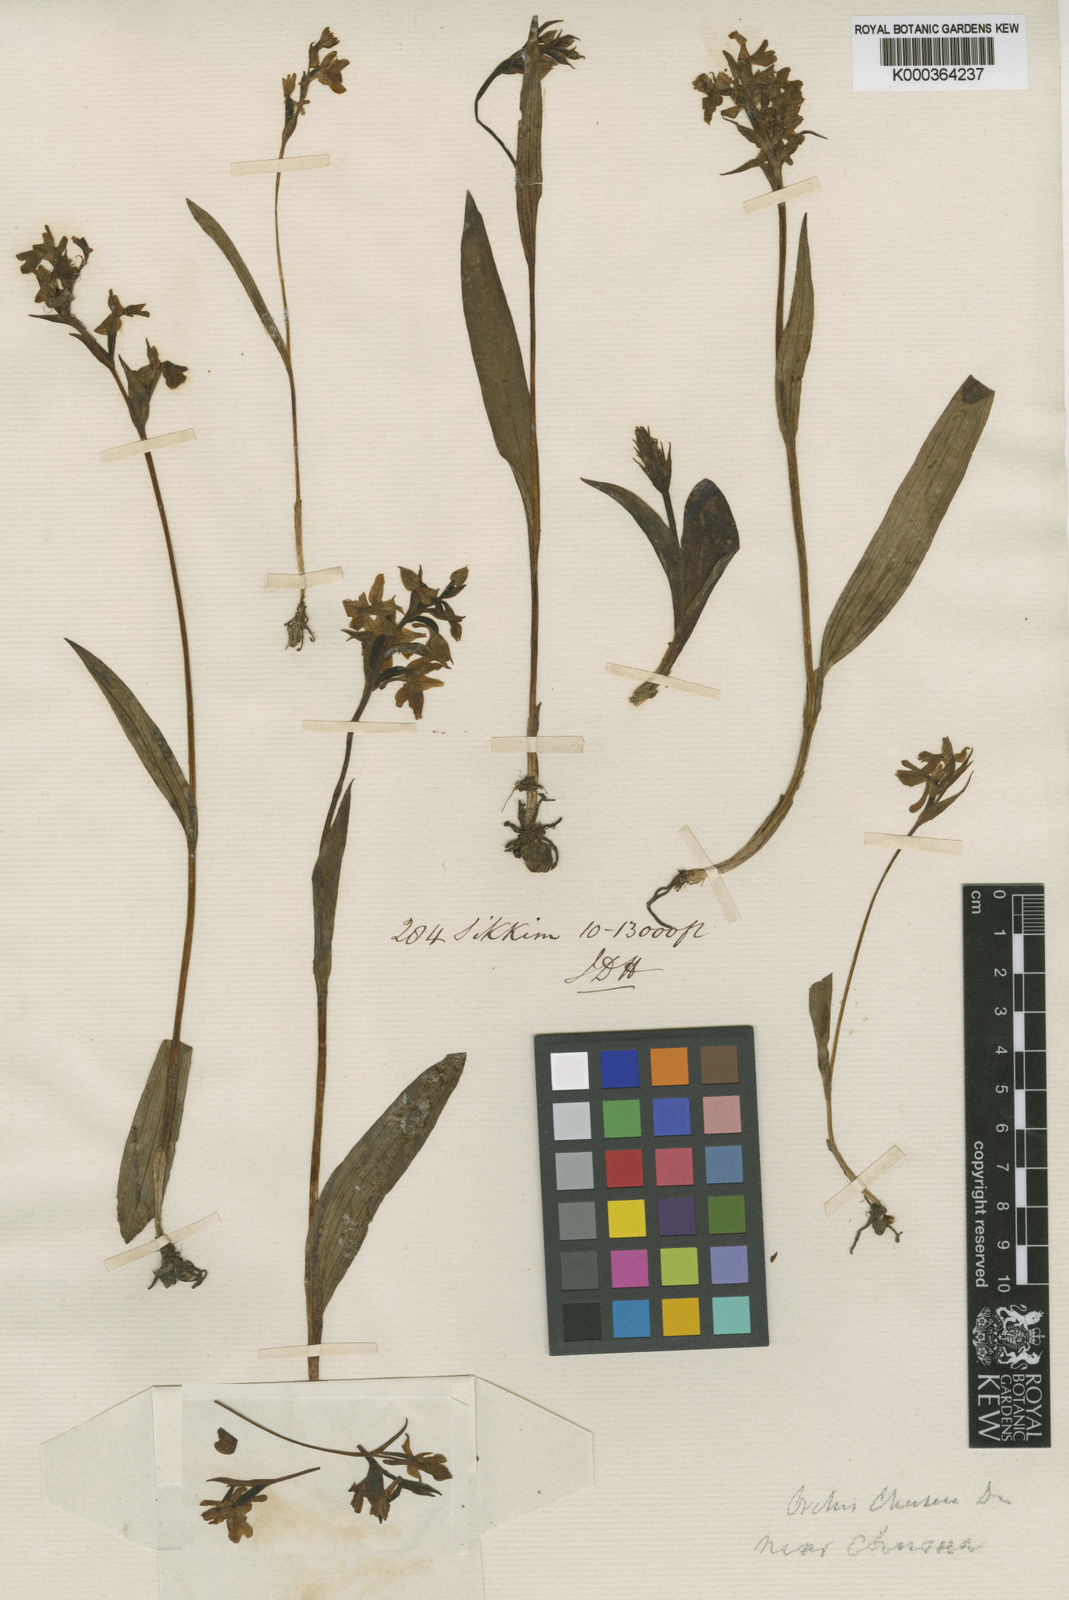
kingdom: Plantae
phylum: Tracheophyta
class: Liliopsida
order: Asparagales
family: Orchidaceae
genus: Hemipilia
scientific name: Hemipilia
